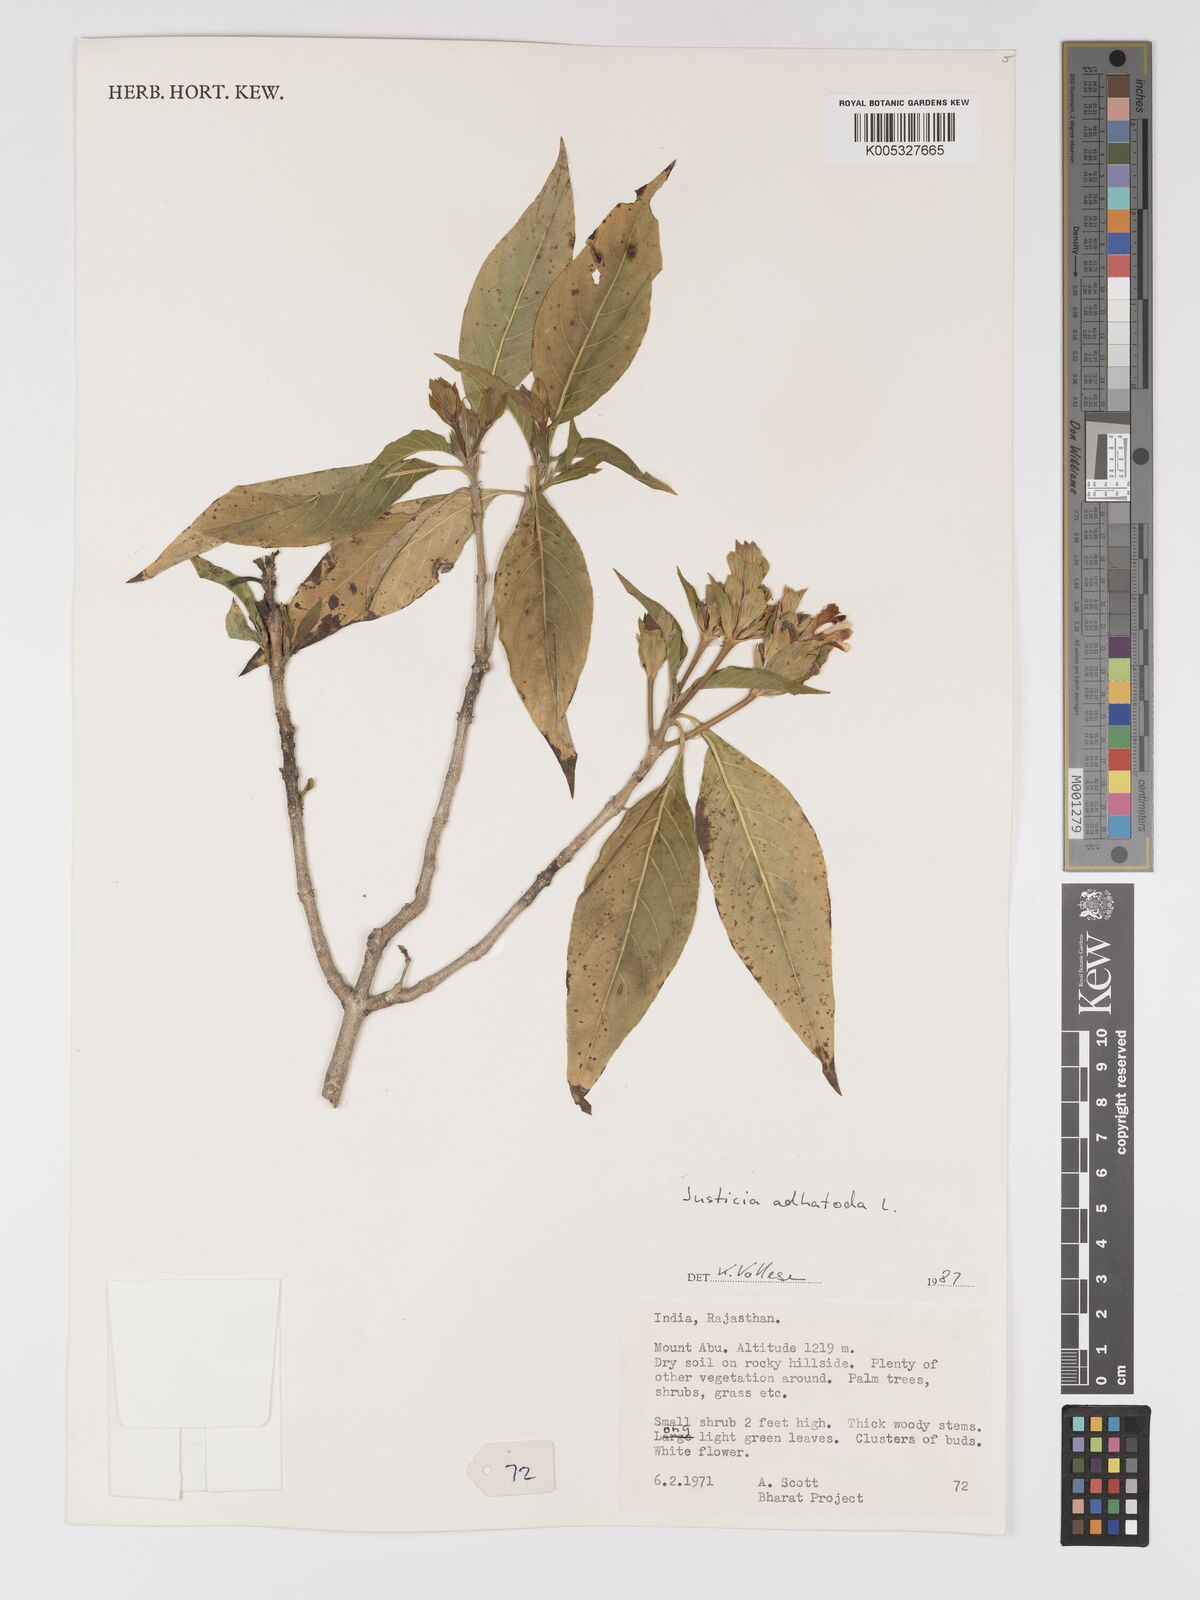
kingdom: Plantae
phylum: Tracheophyta
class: Magnoliopsida
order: Lamiales
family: Acanthaceae
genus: Ecbolium
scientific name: Ecbolium ligustrinum
